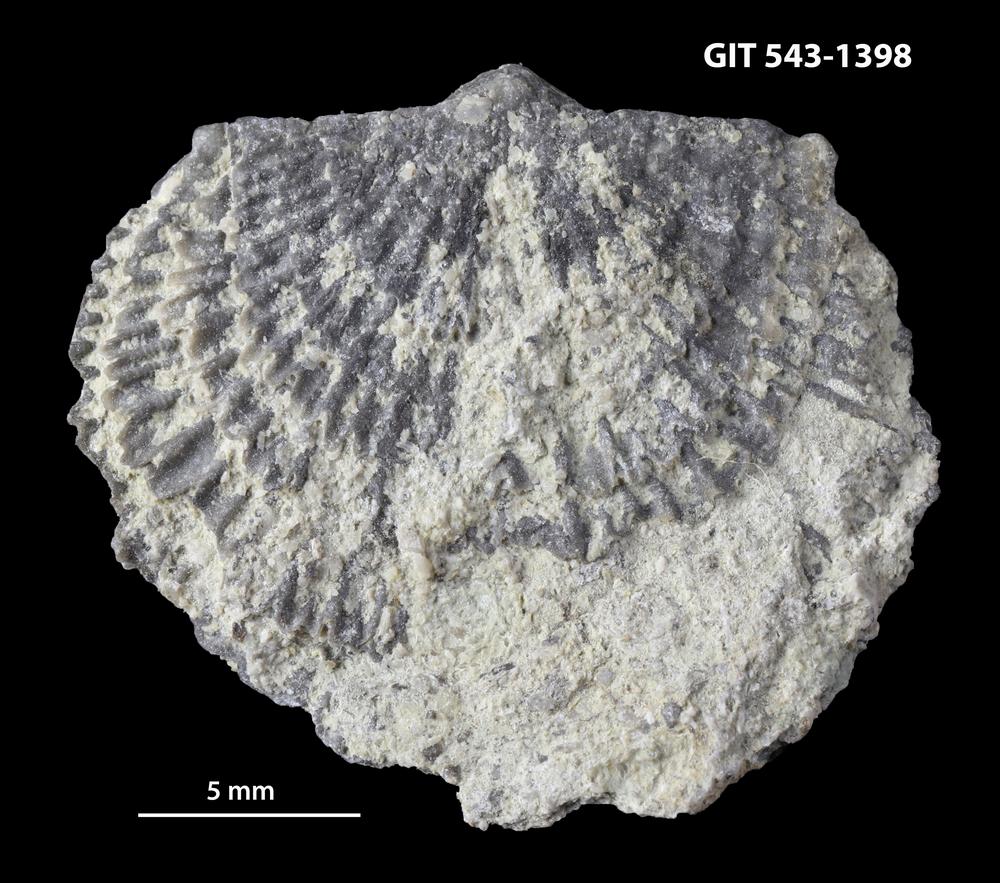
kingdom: Animalia
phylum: Brachiopoda
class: Rhynchonellata
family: Clitambonitidae
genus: Clitambonites
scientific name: Clitambonites Orthisina schmidti
